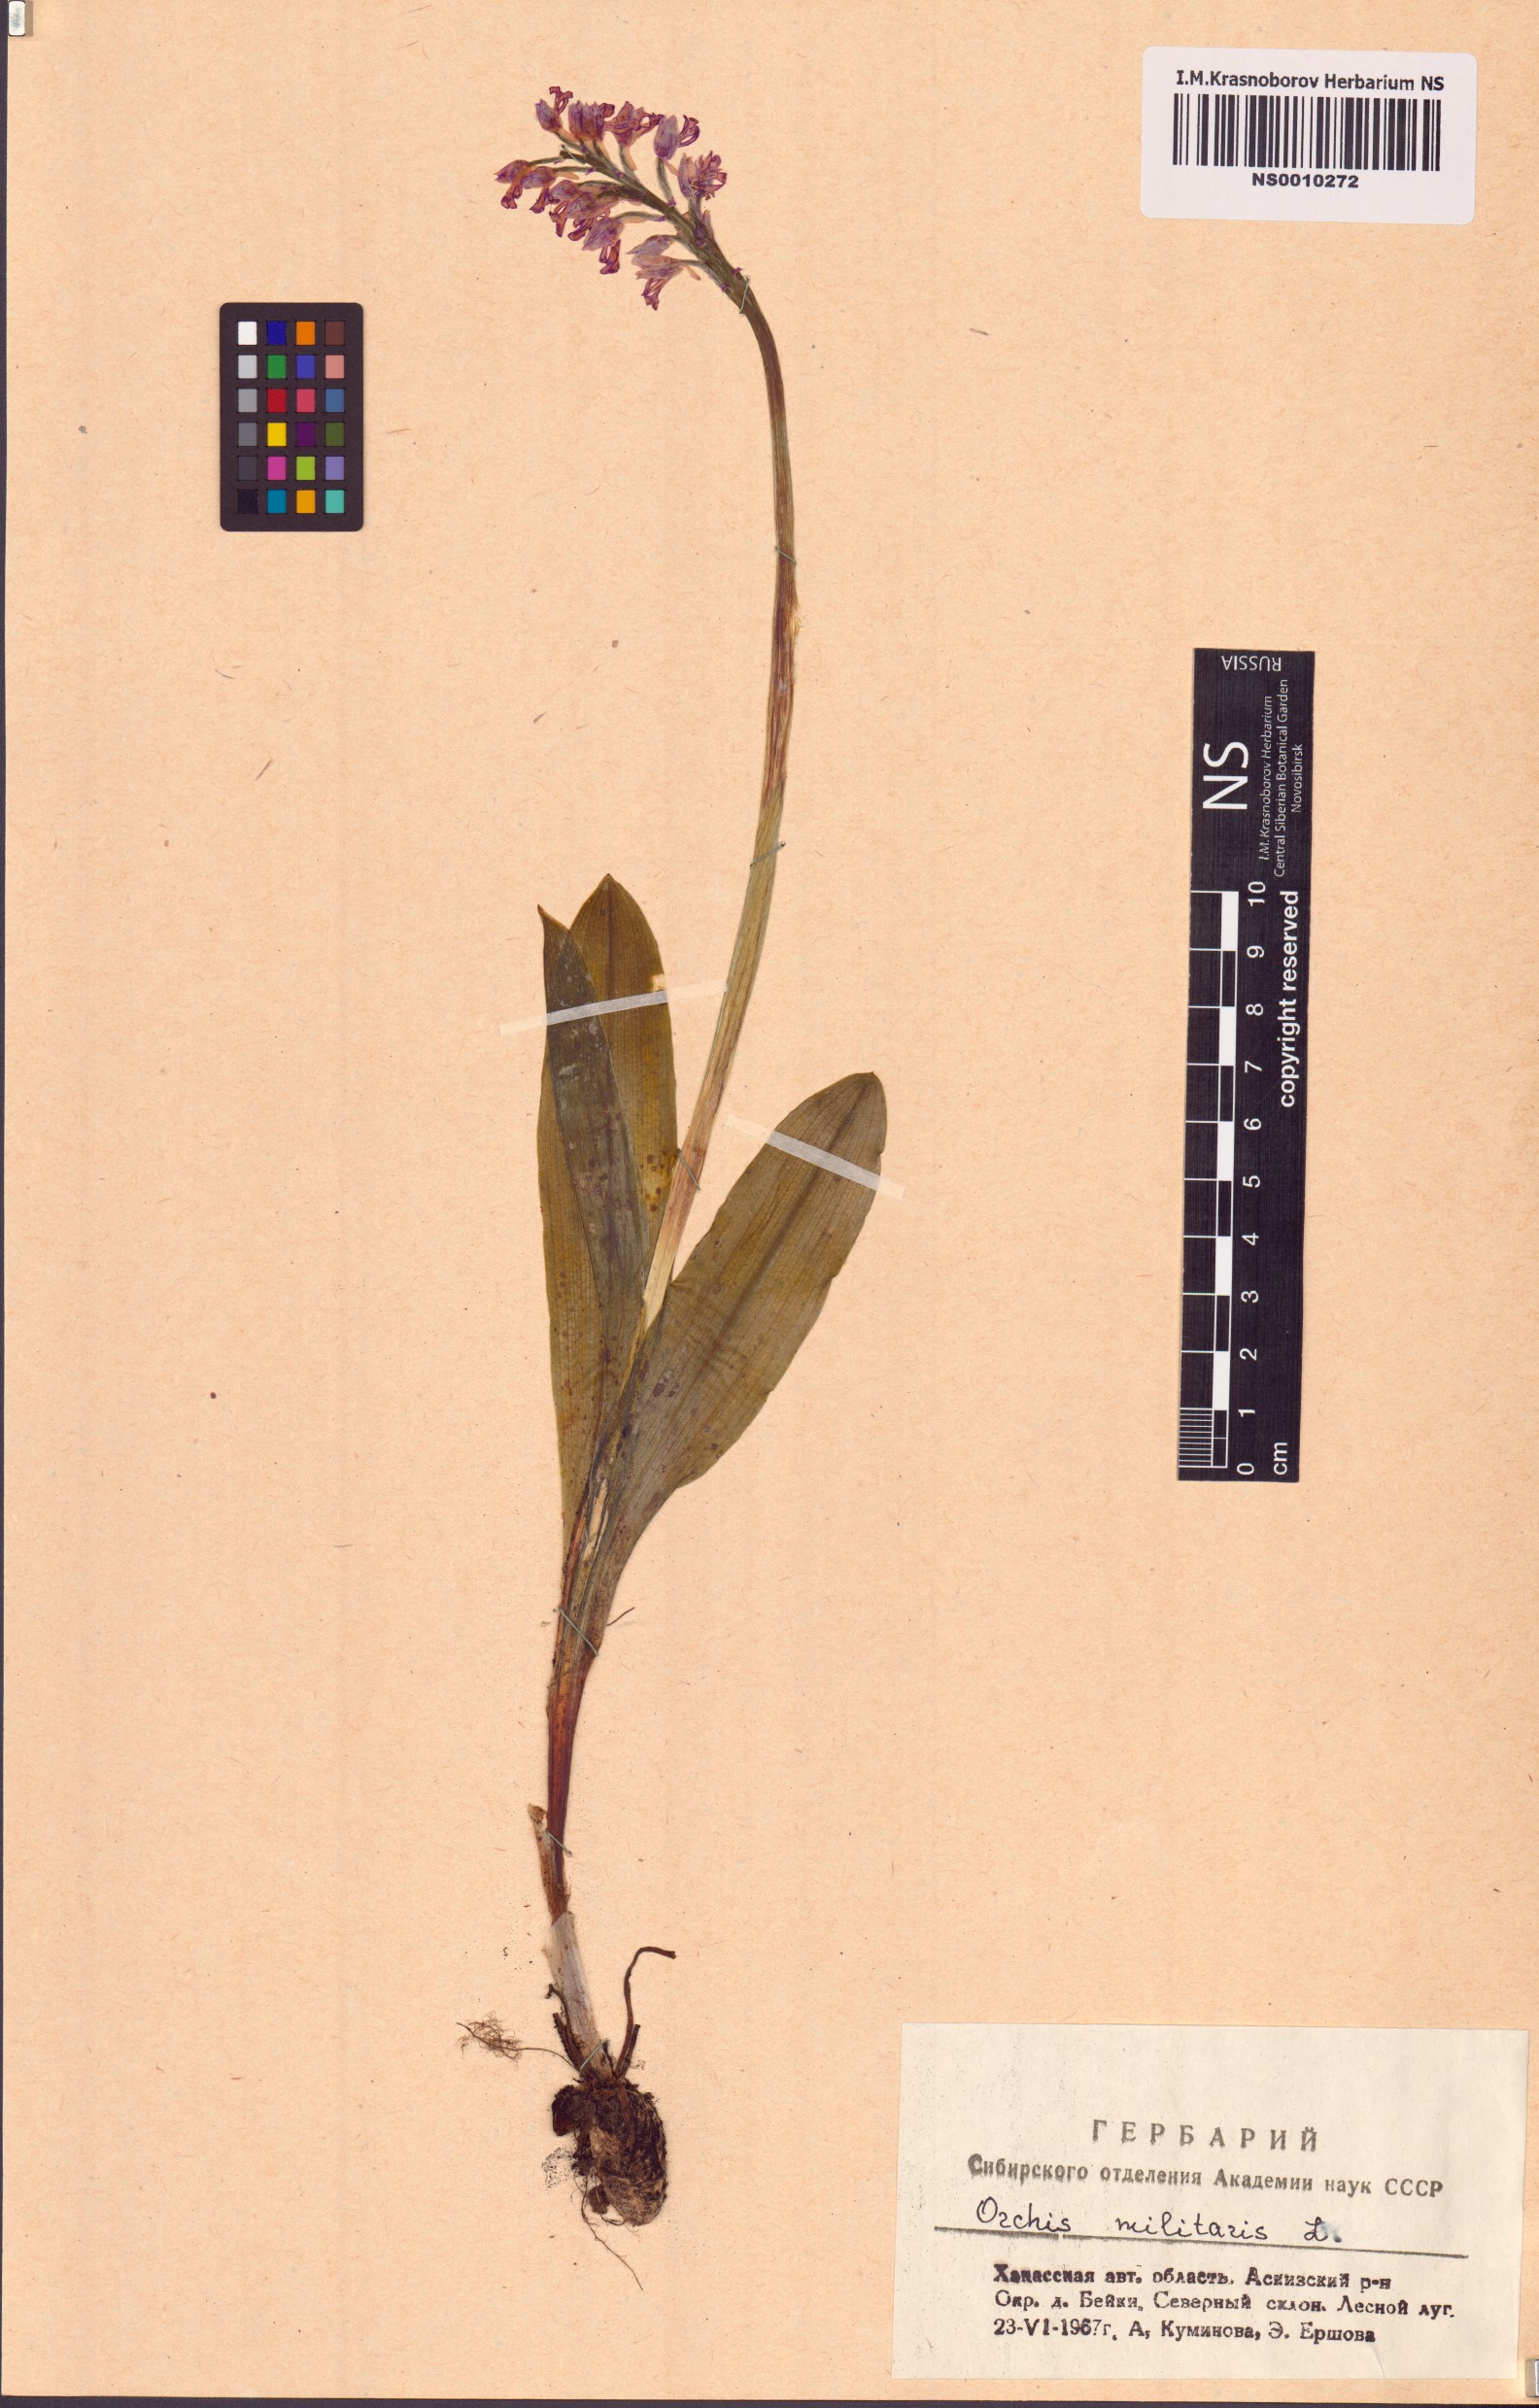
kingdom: Plantae
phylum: Tracheophyta
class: Liliopsida
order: Asparagales
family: Orchidaceae
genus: Orchis
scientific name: Orchis militaris
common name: Military orchid
